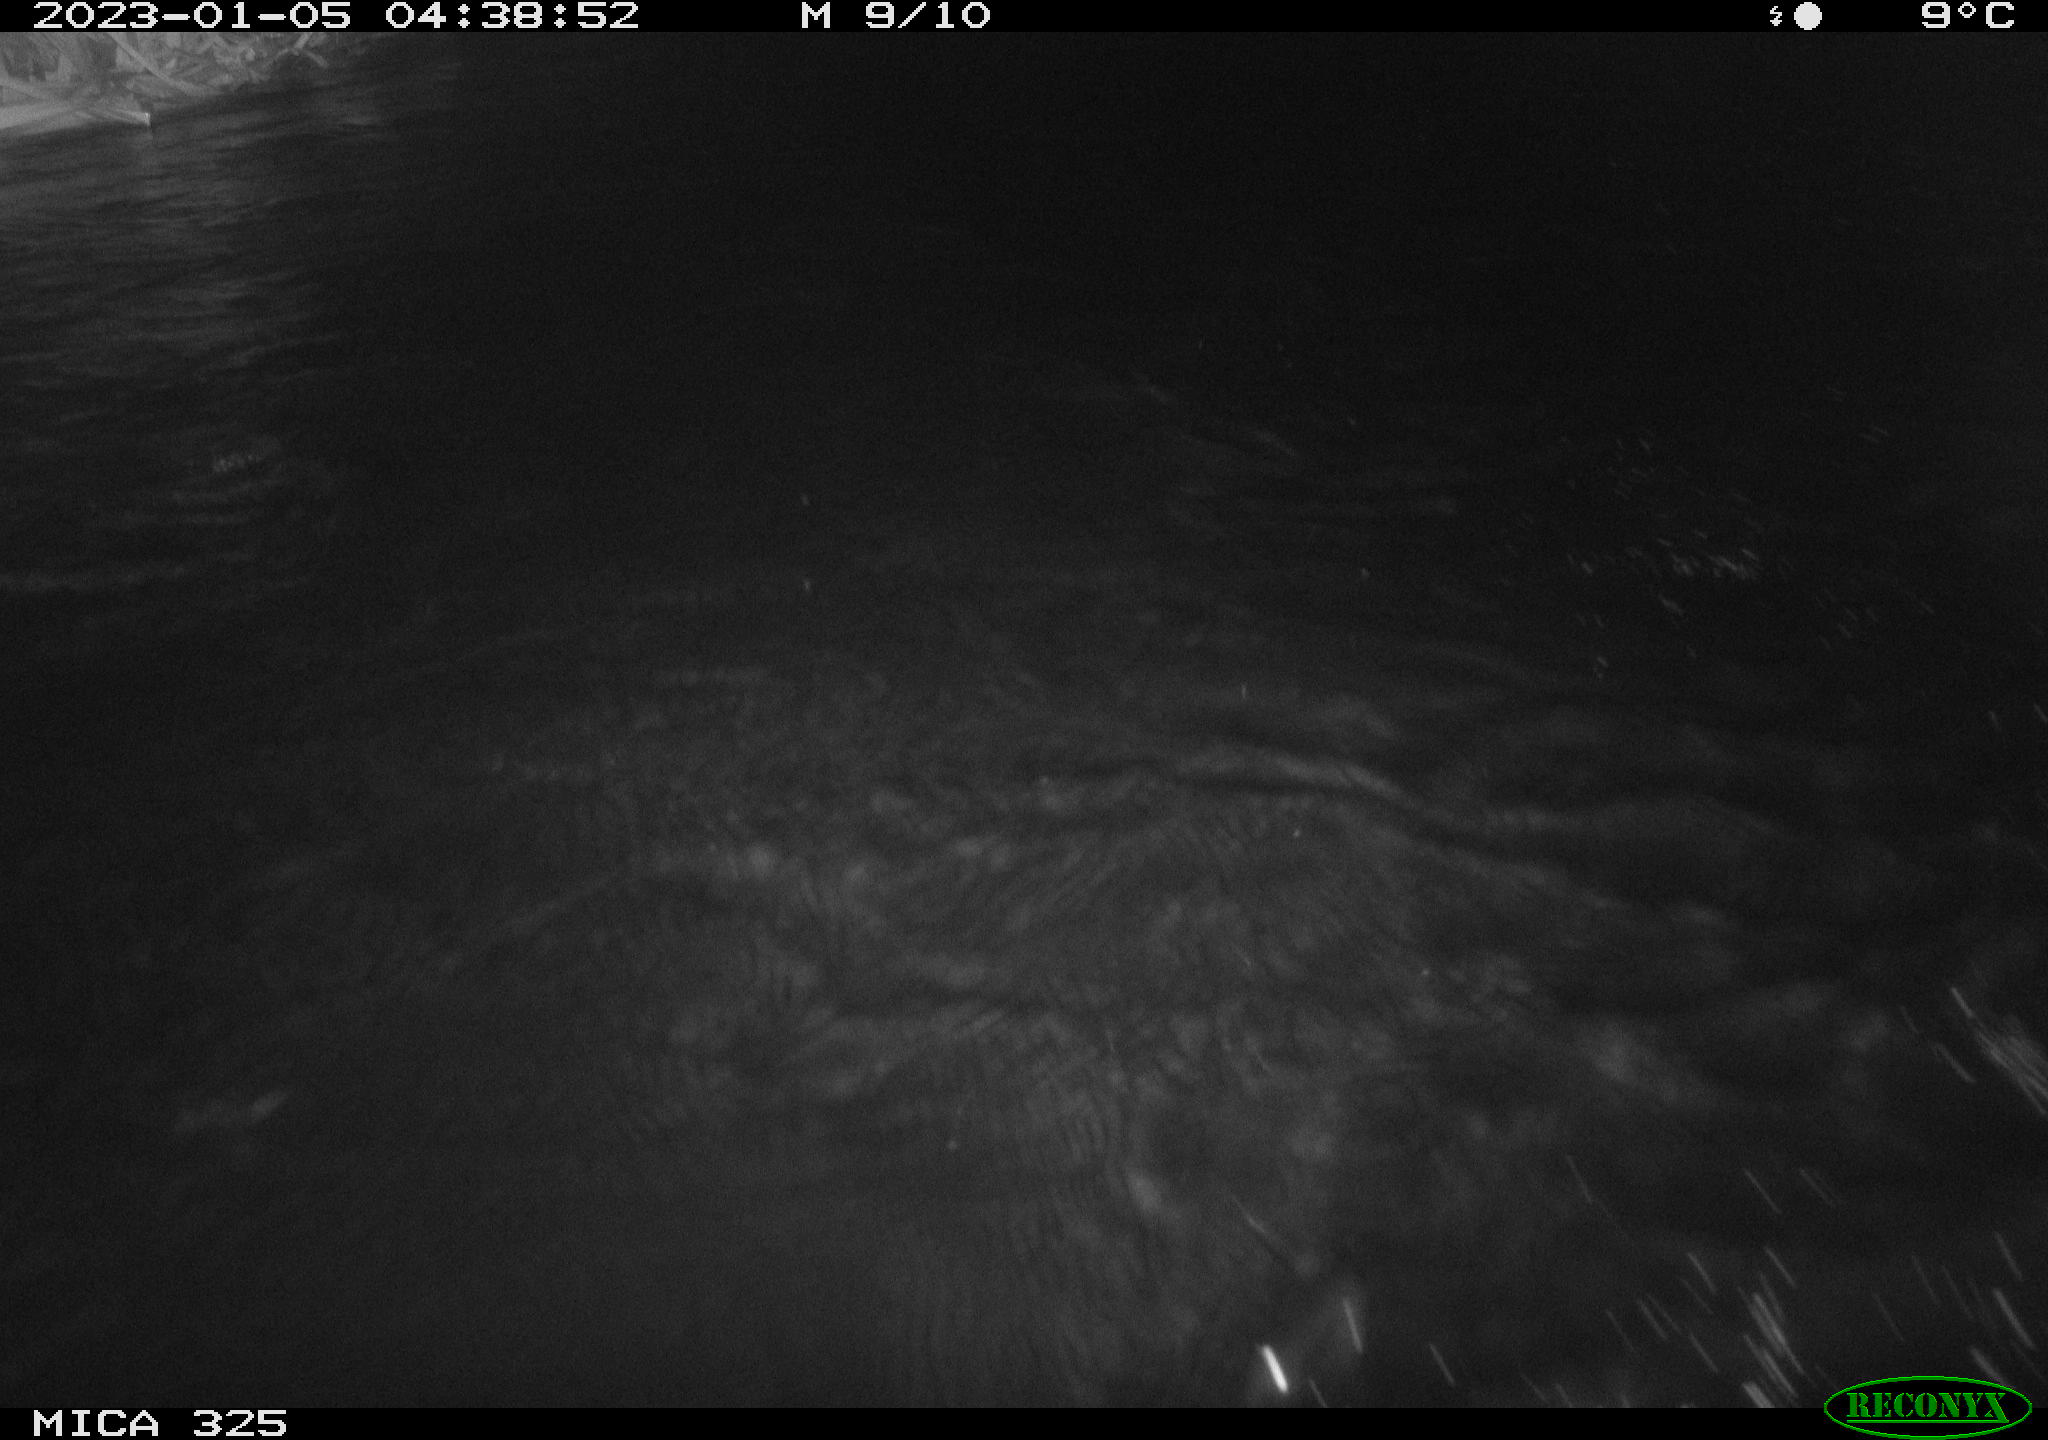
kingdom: Animalia
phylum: Chordata
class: Mammalia
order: Rodentia
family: Myocastoridae
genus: Myocastor
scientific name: Myocastor coypus
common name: Coypu
